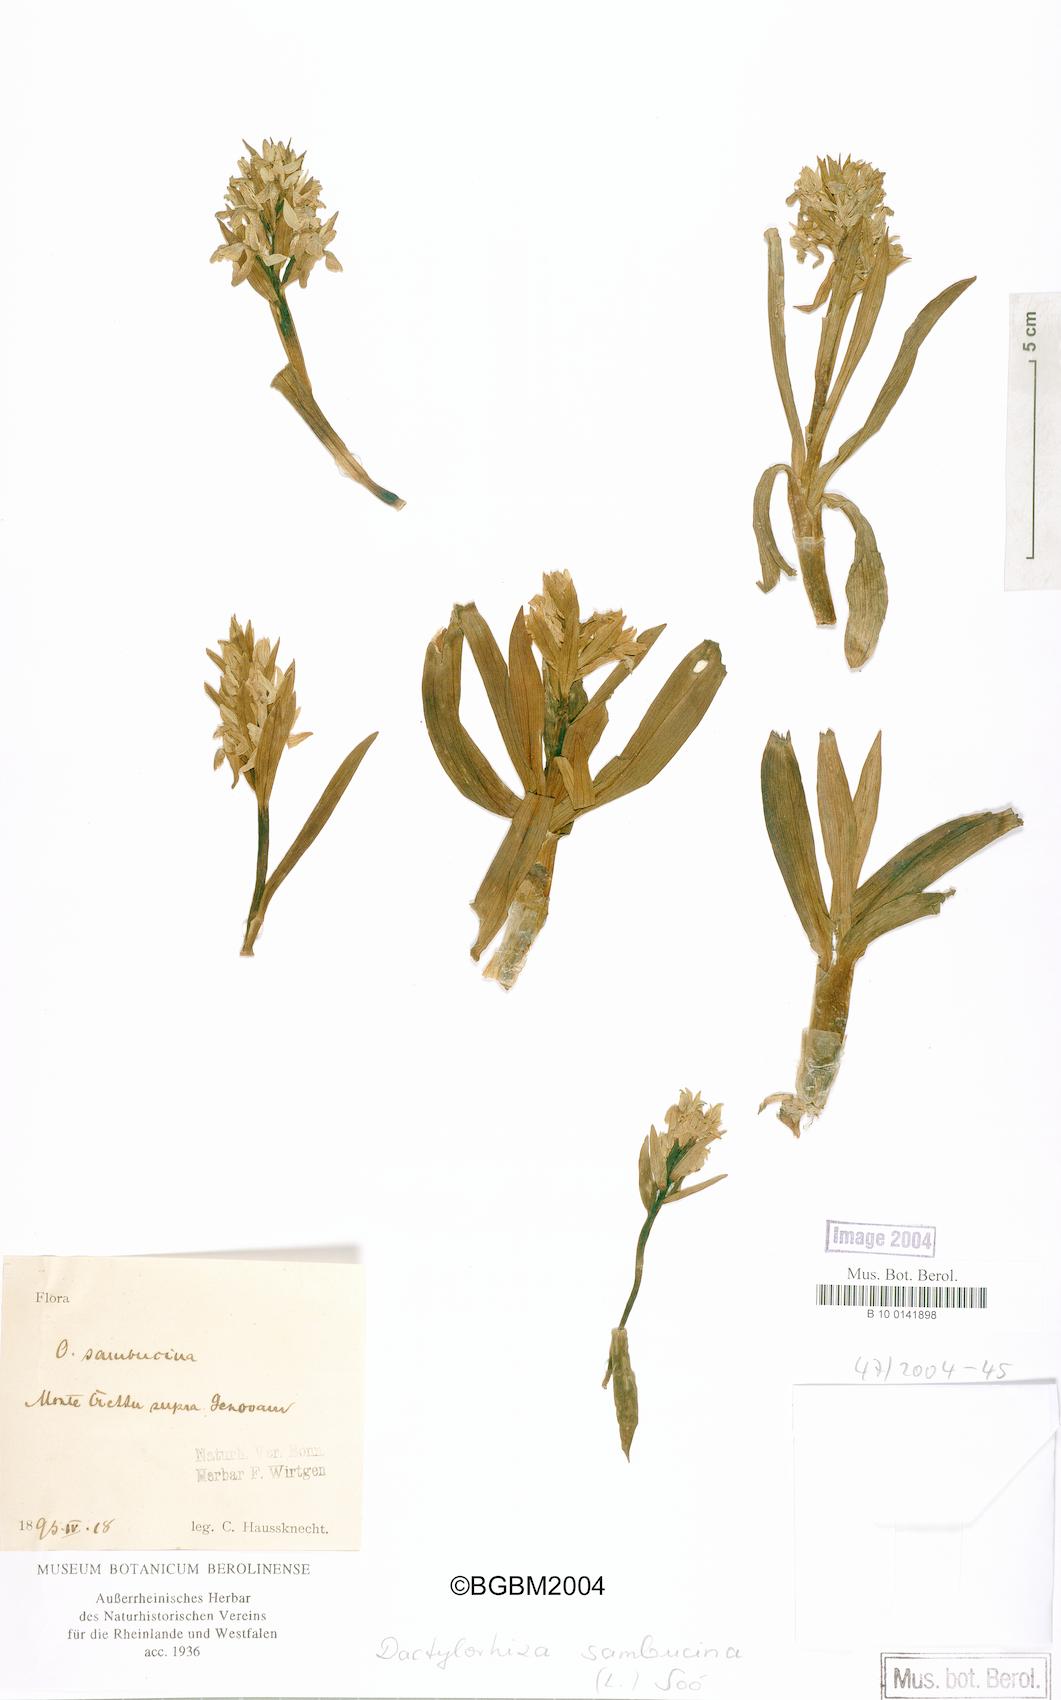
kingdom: Plantae
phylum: Tracheophyta
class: Liliopsida
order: Asparagales
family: Orchidaceae
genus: Dactylorhiza
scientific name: Dactylorhiza sambucina
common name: Elder-flowered orchid
